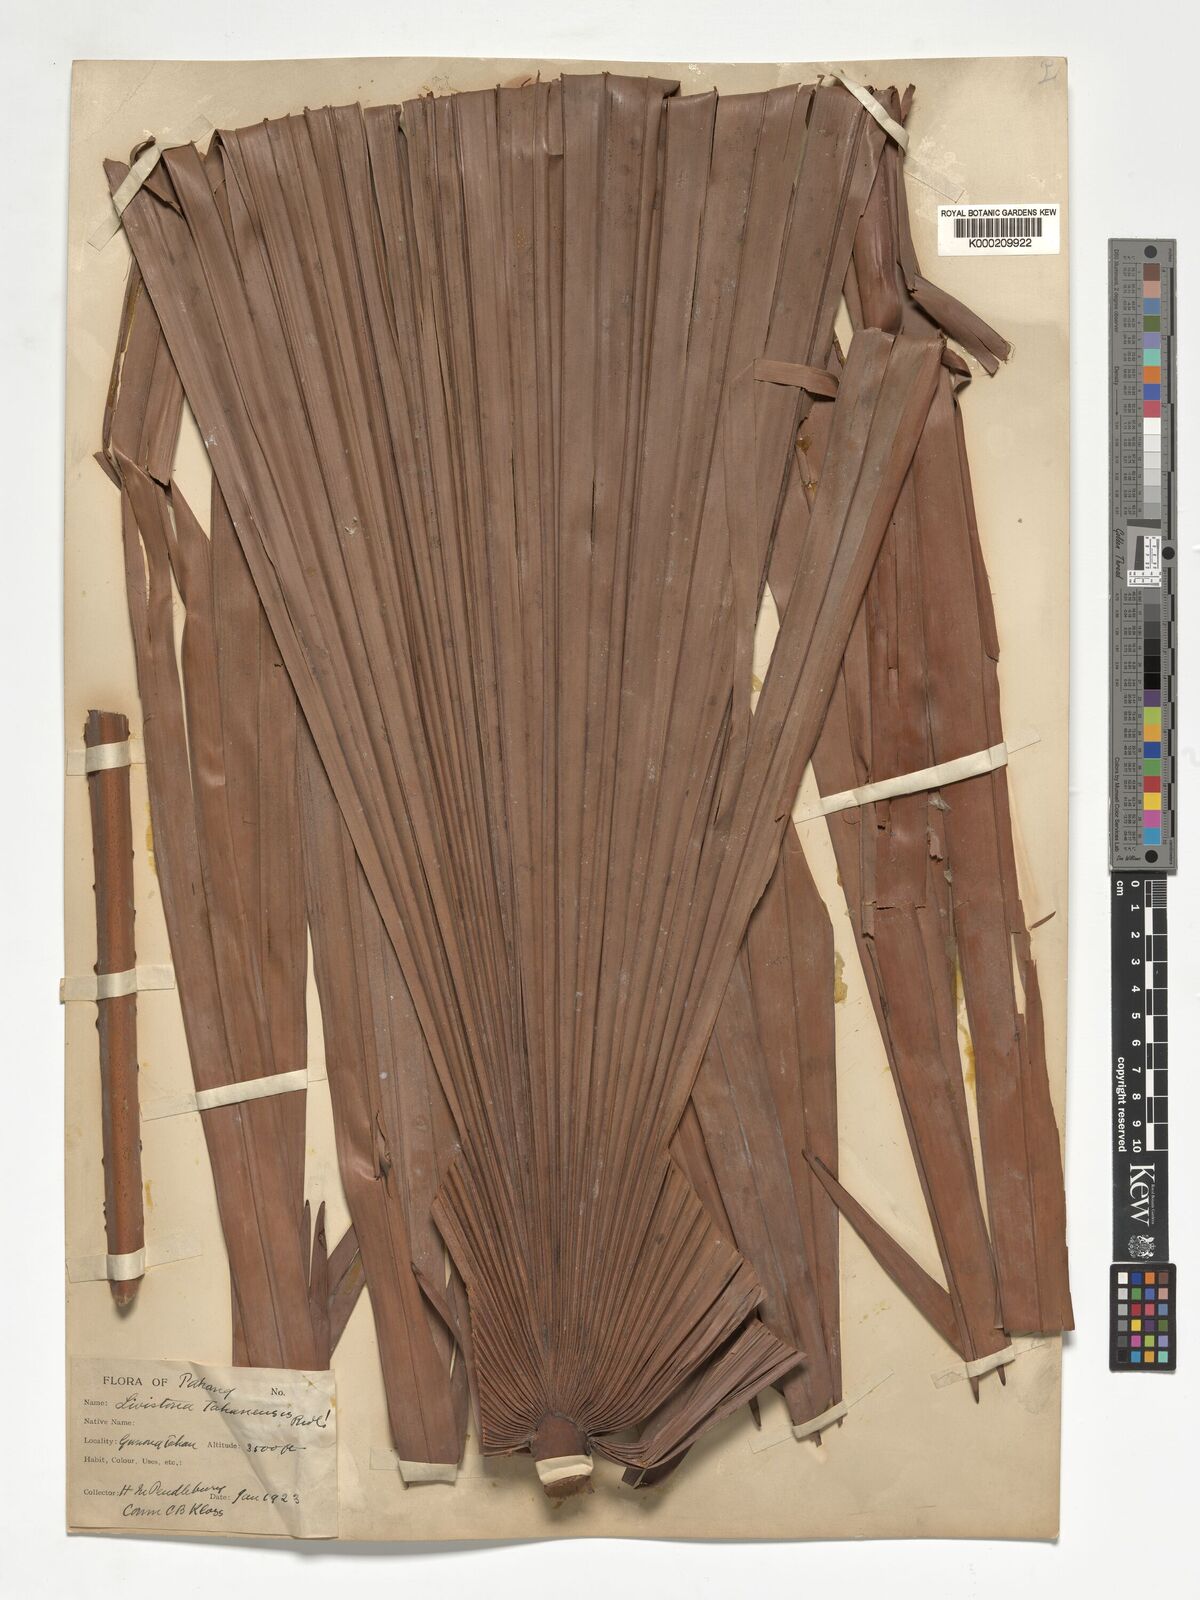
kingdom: Plantae
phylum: Tracheophyta
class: Liliopsida
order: Arecales
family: Arecaceae
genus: Livistona
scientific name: Livistona tahanensis
